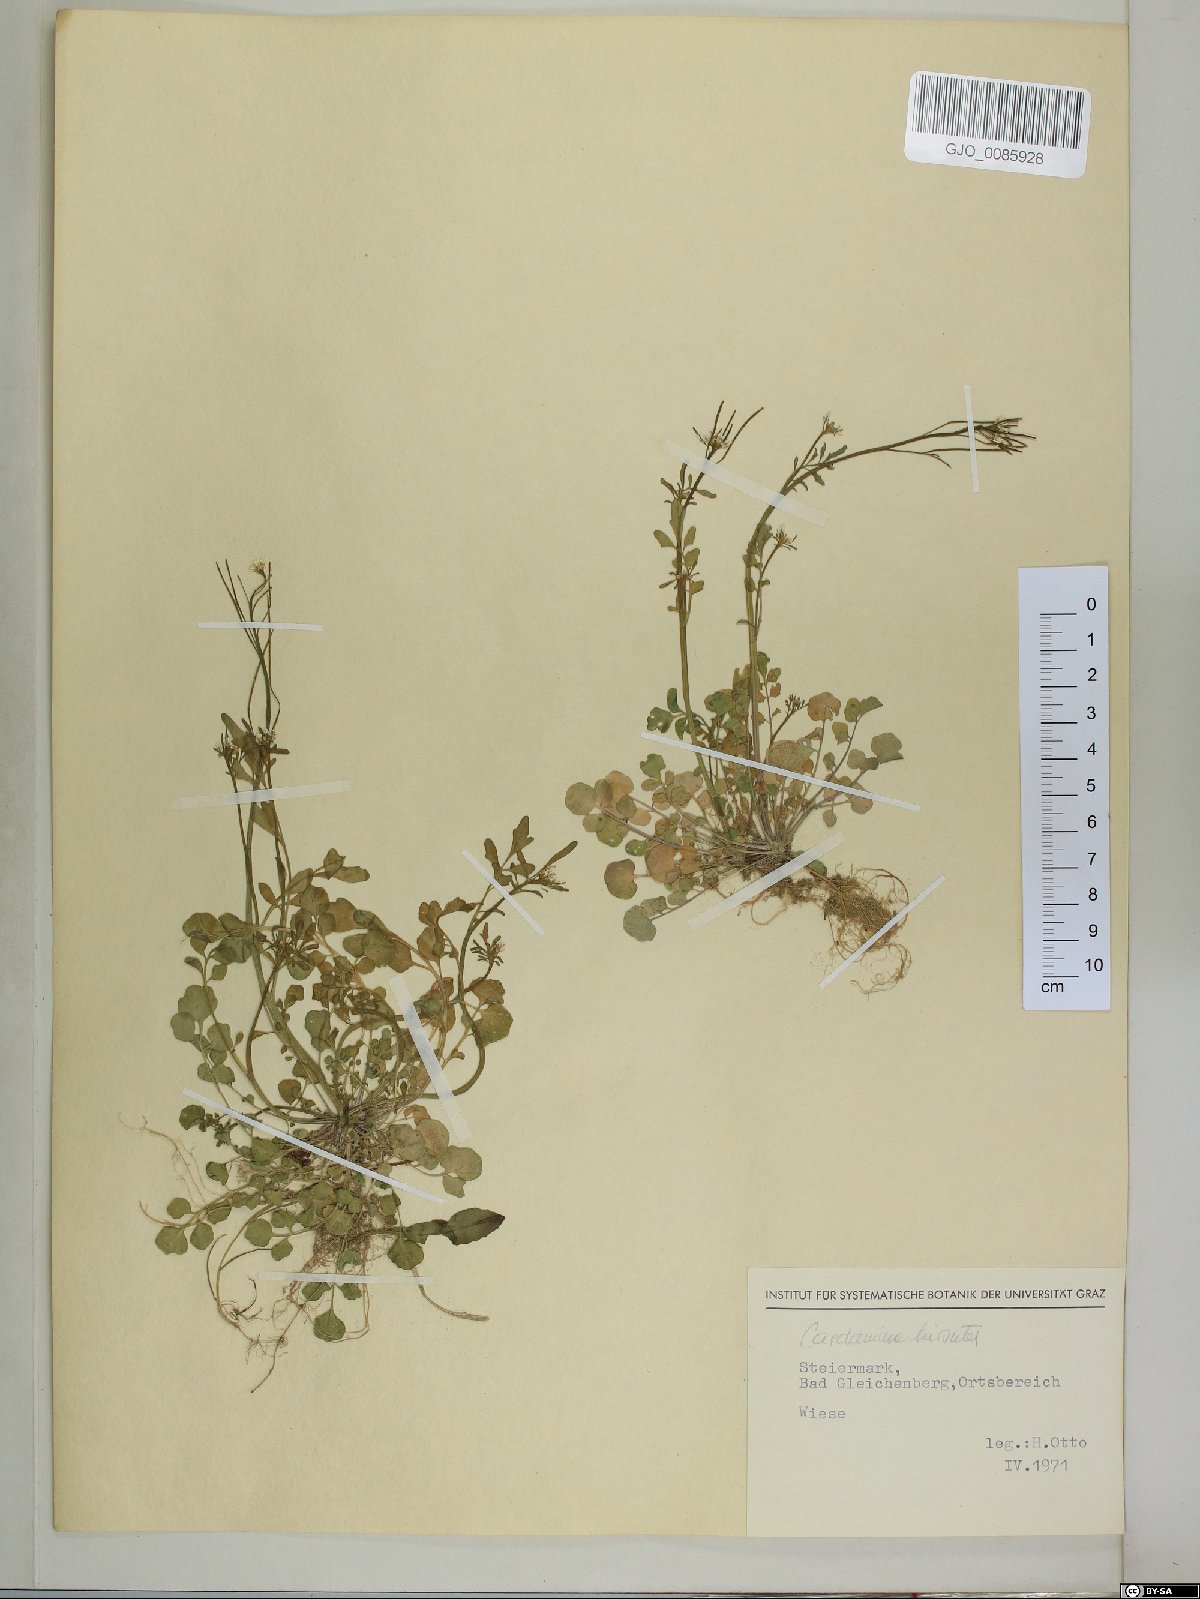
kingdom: Plantae
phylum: Tracheophyta
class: Magnoliopsida
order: Brassicales
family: Brassicaceae
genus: Cardamine
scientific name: Cardamine hirsuta
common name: Hairy bittercress
